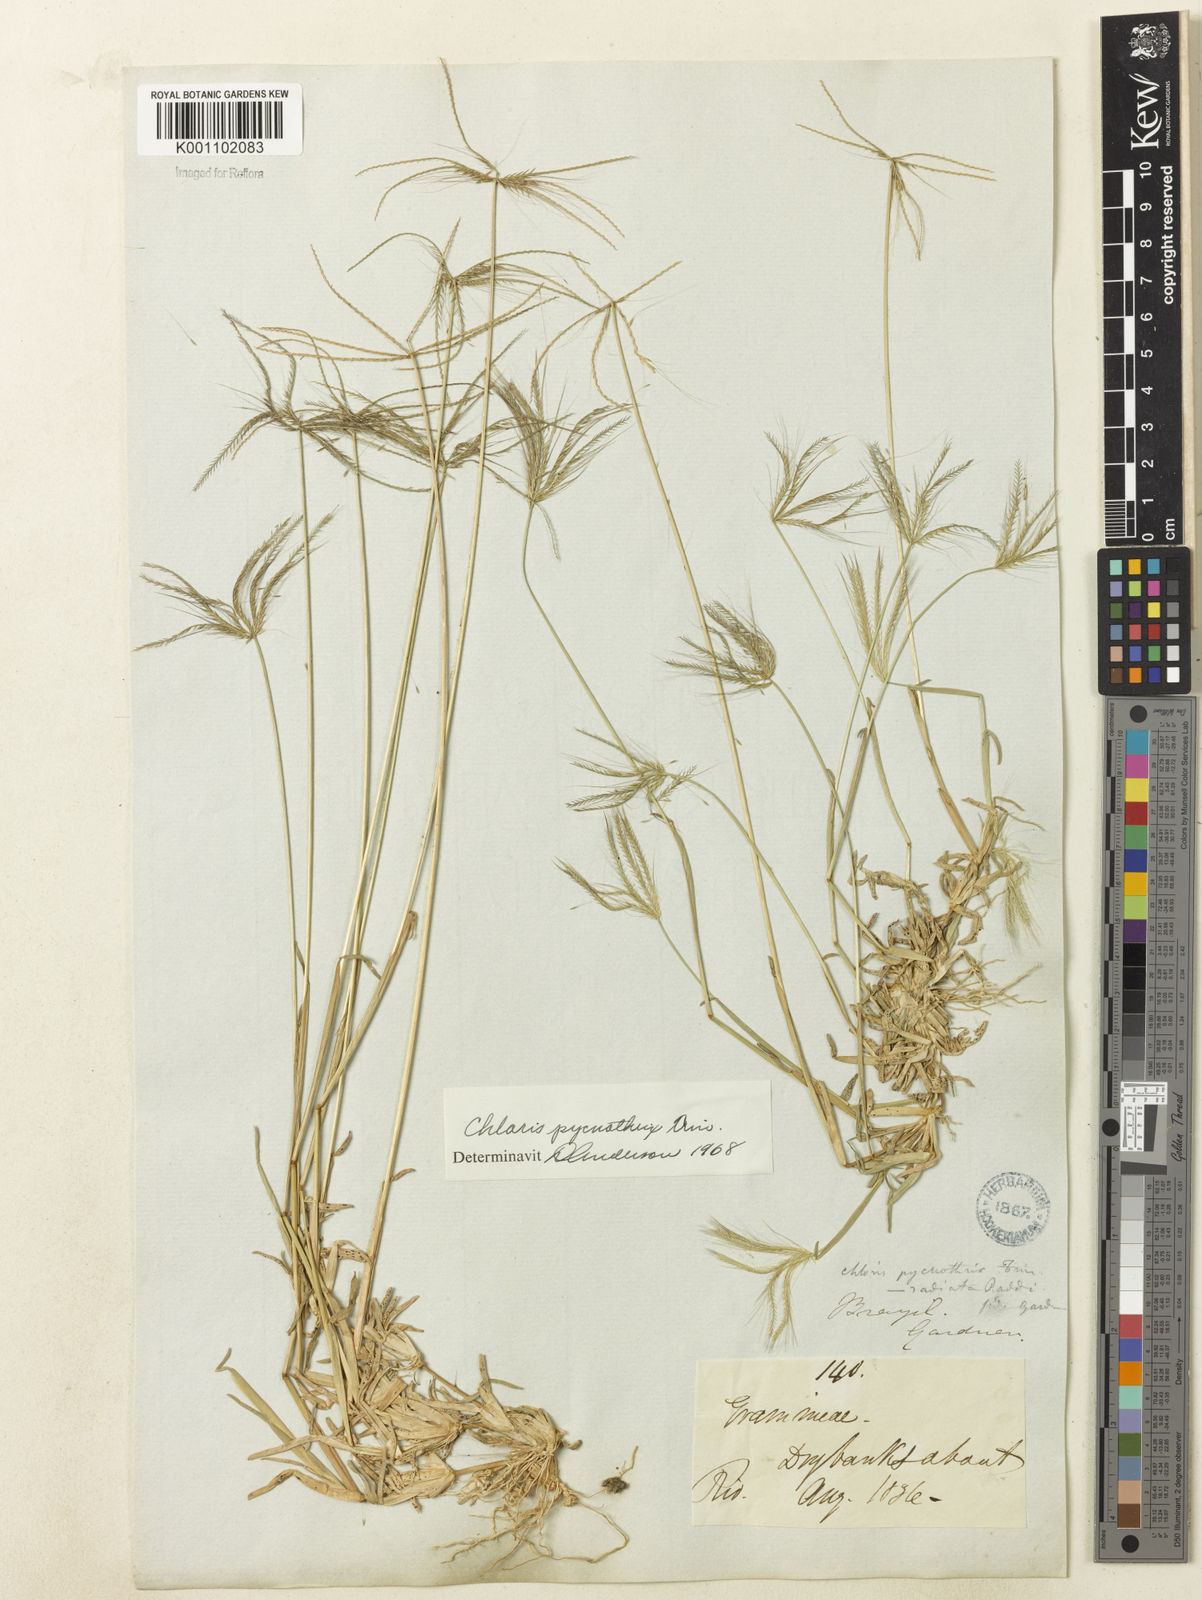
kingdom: Plantae
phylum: Tracheophyta
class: Liliopsida
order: Poales
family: Poaceae
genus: Chloris
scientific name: Chloris pycnothrix
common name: Spiderweb chloris
